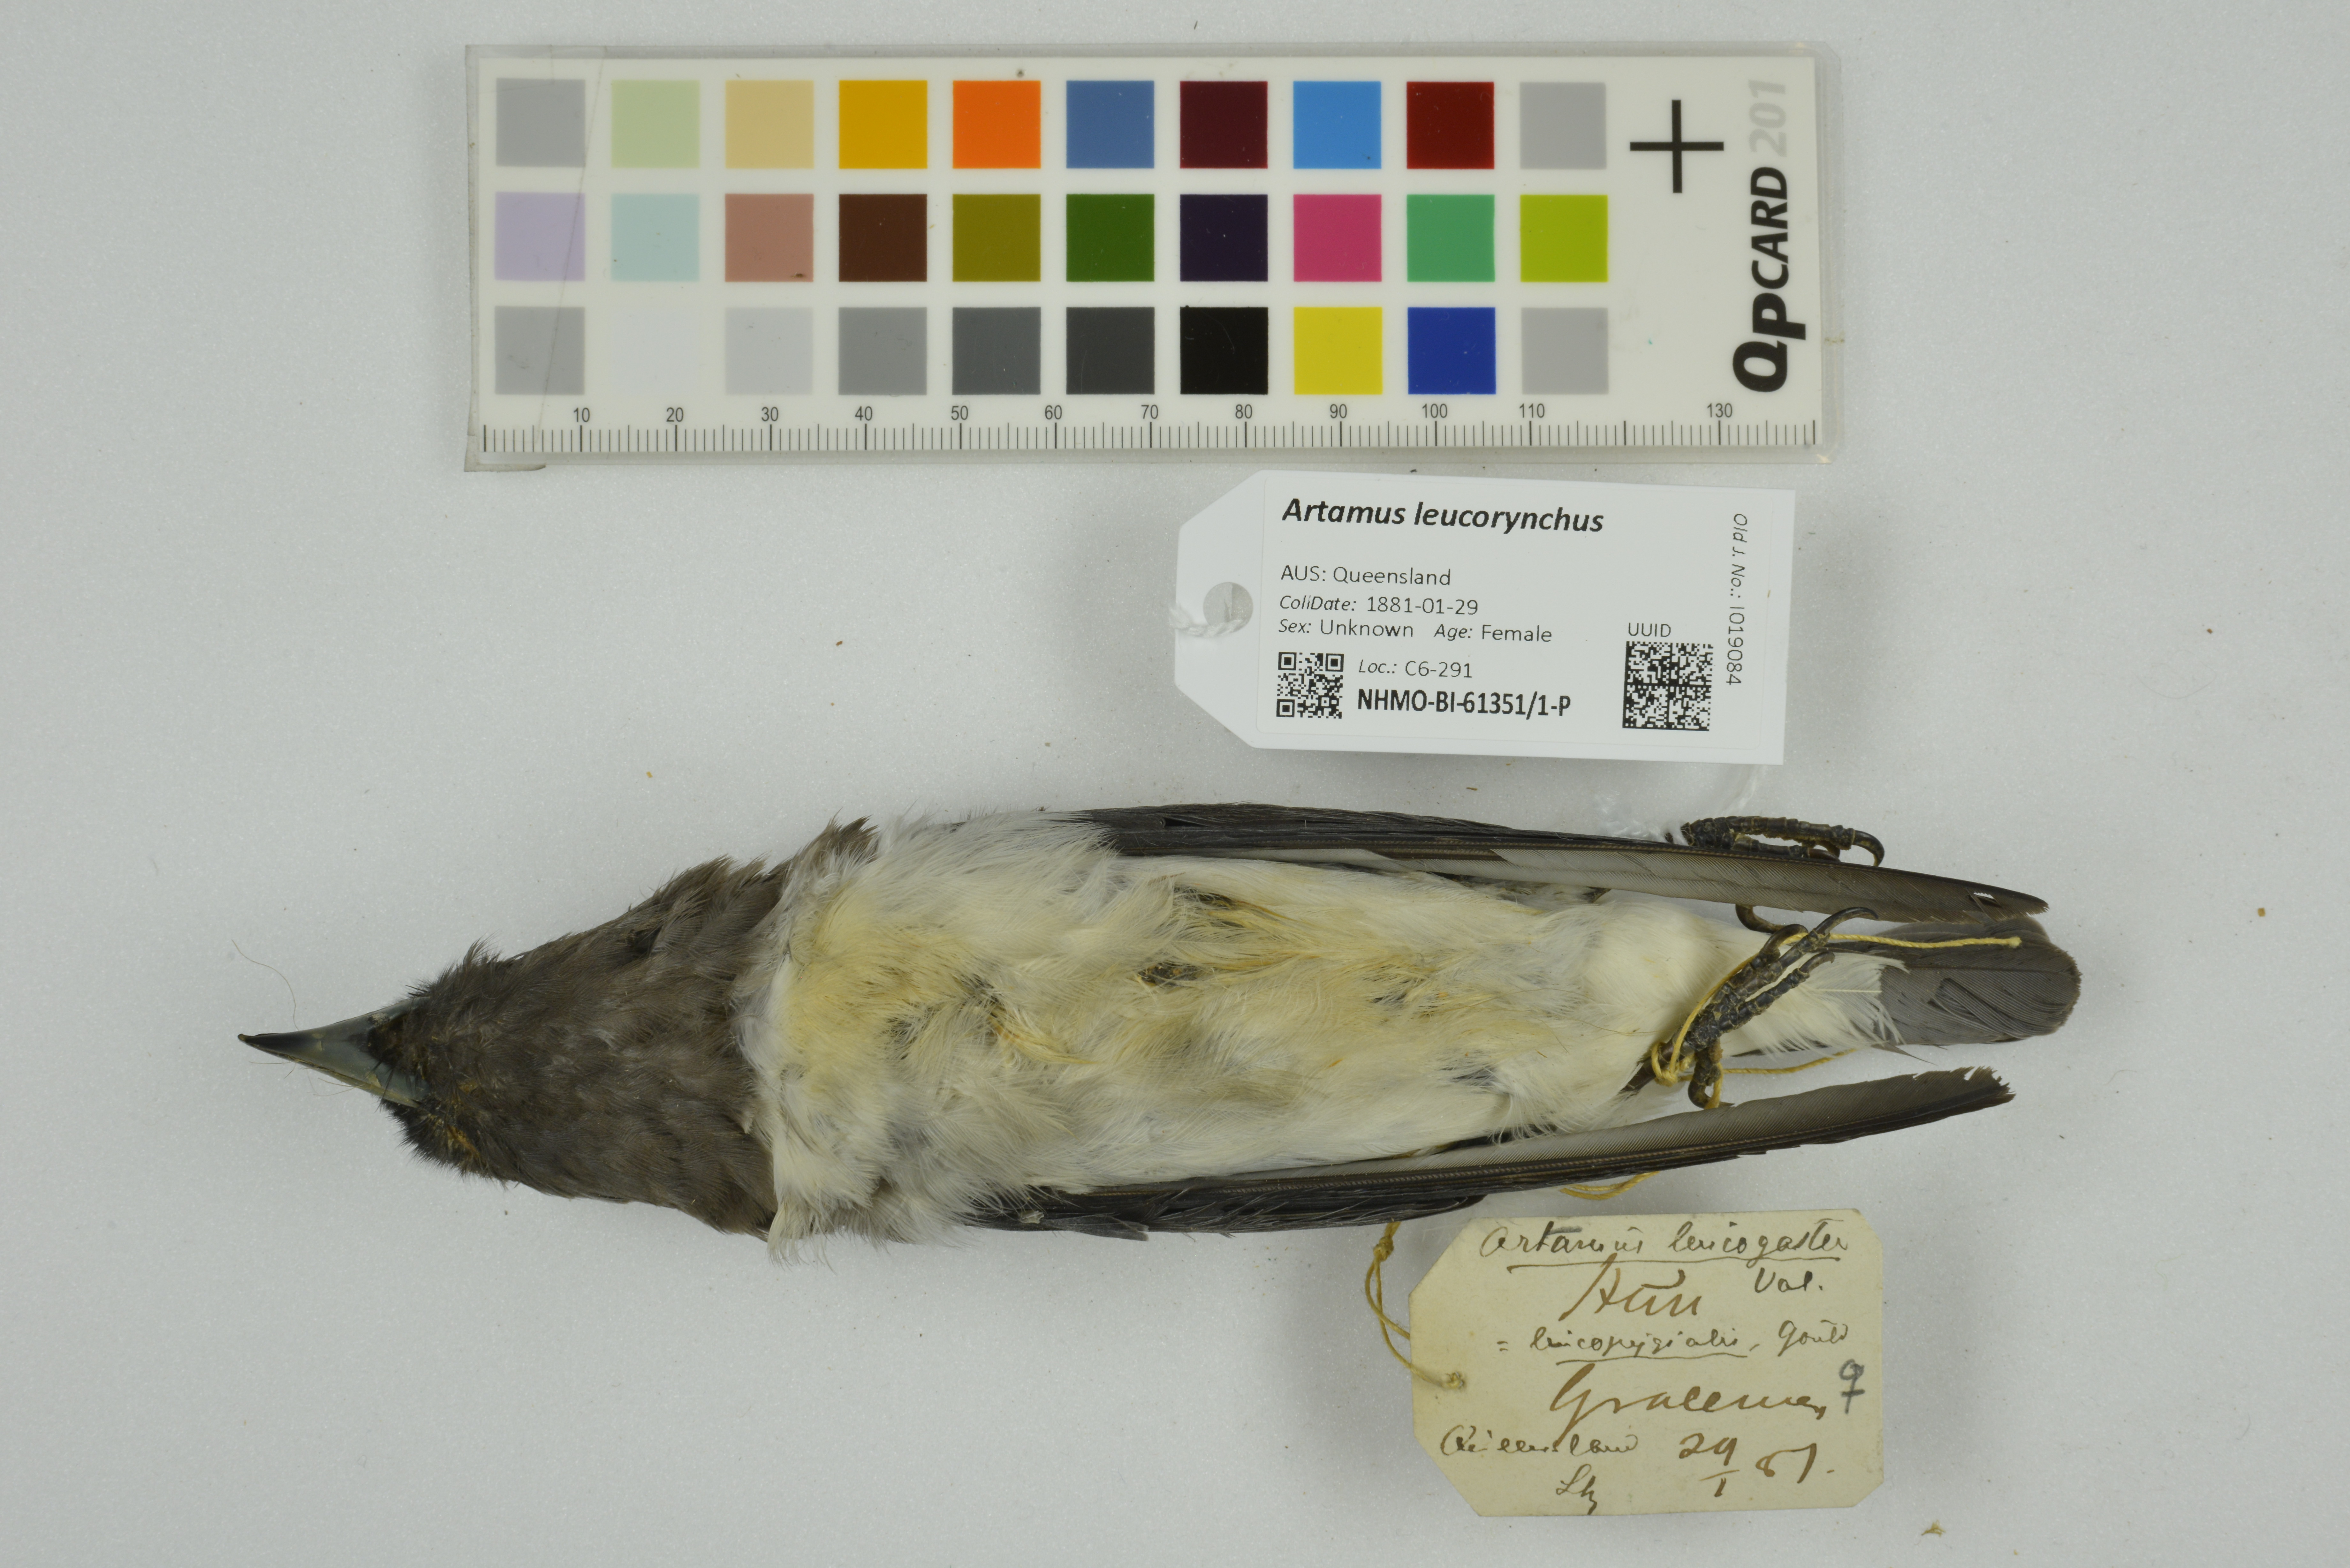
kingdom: Animalia
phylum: Chordata
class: Aves
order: Passeriformes
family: Artamidae
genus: Artamus
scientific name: Artamus leucoryn
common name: White-breasted woodswallow
